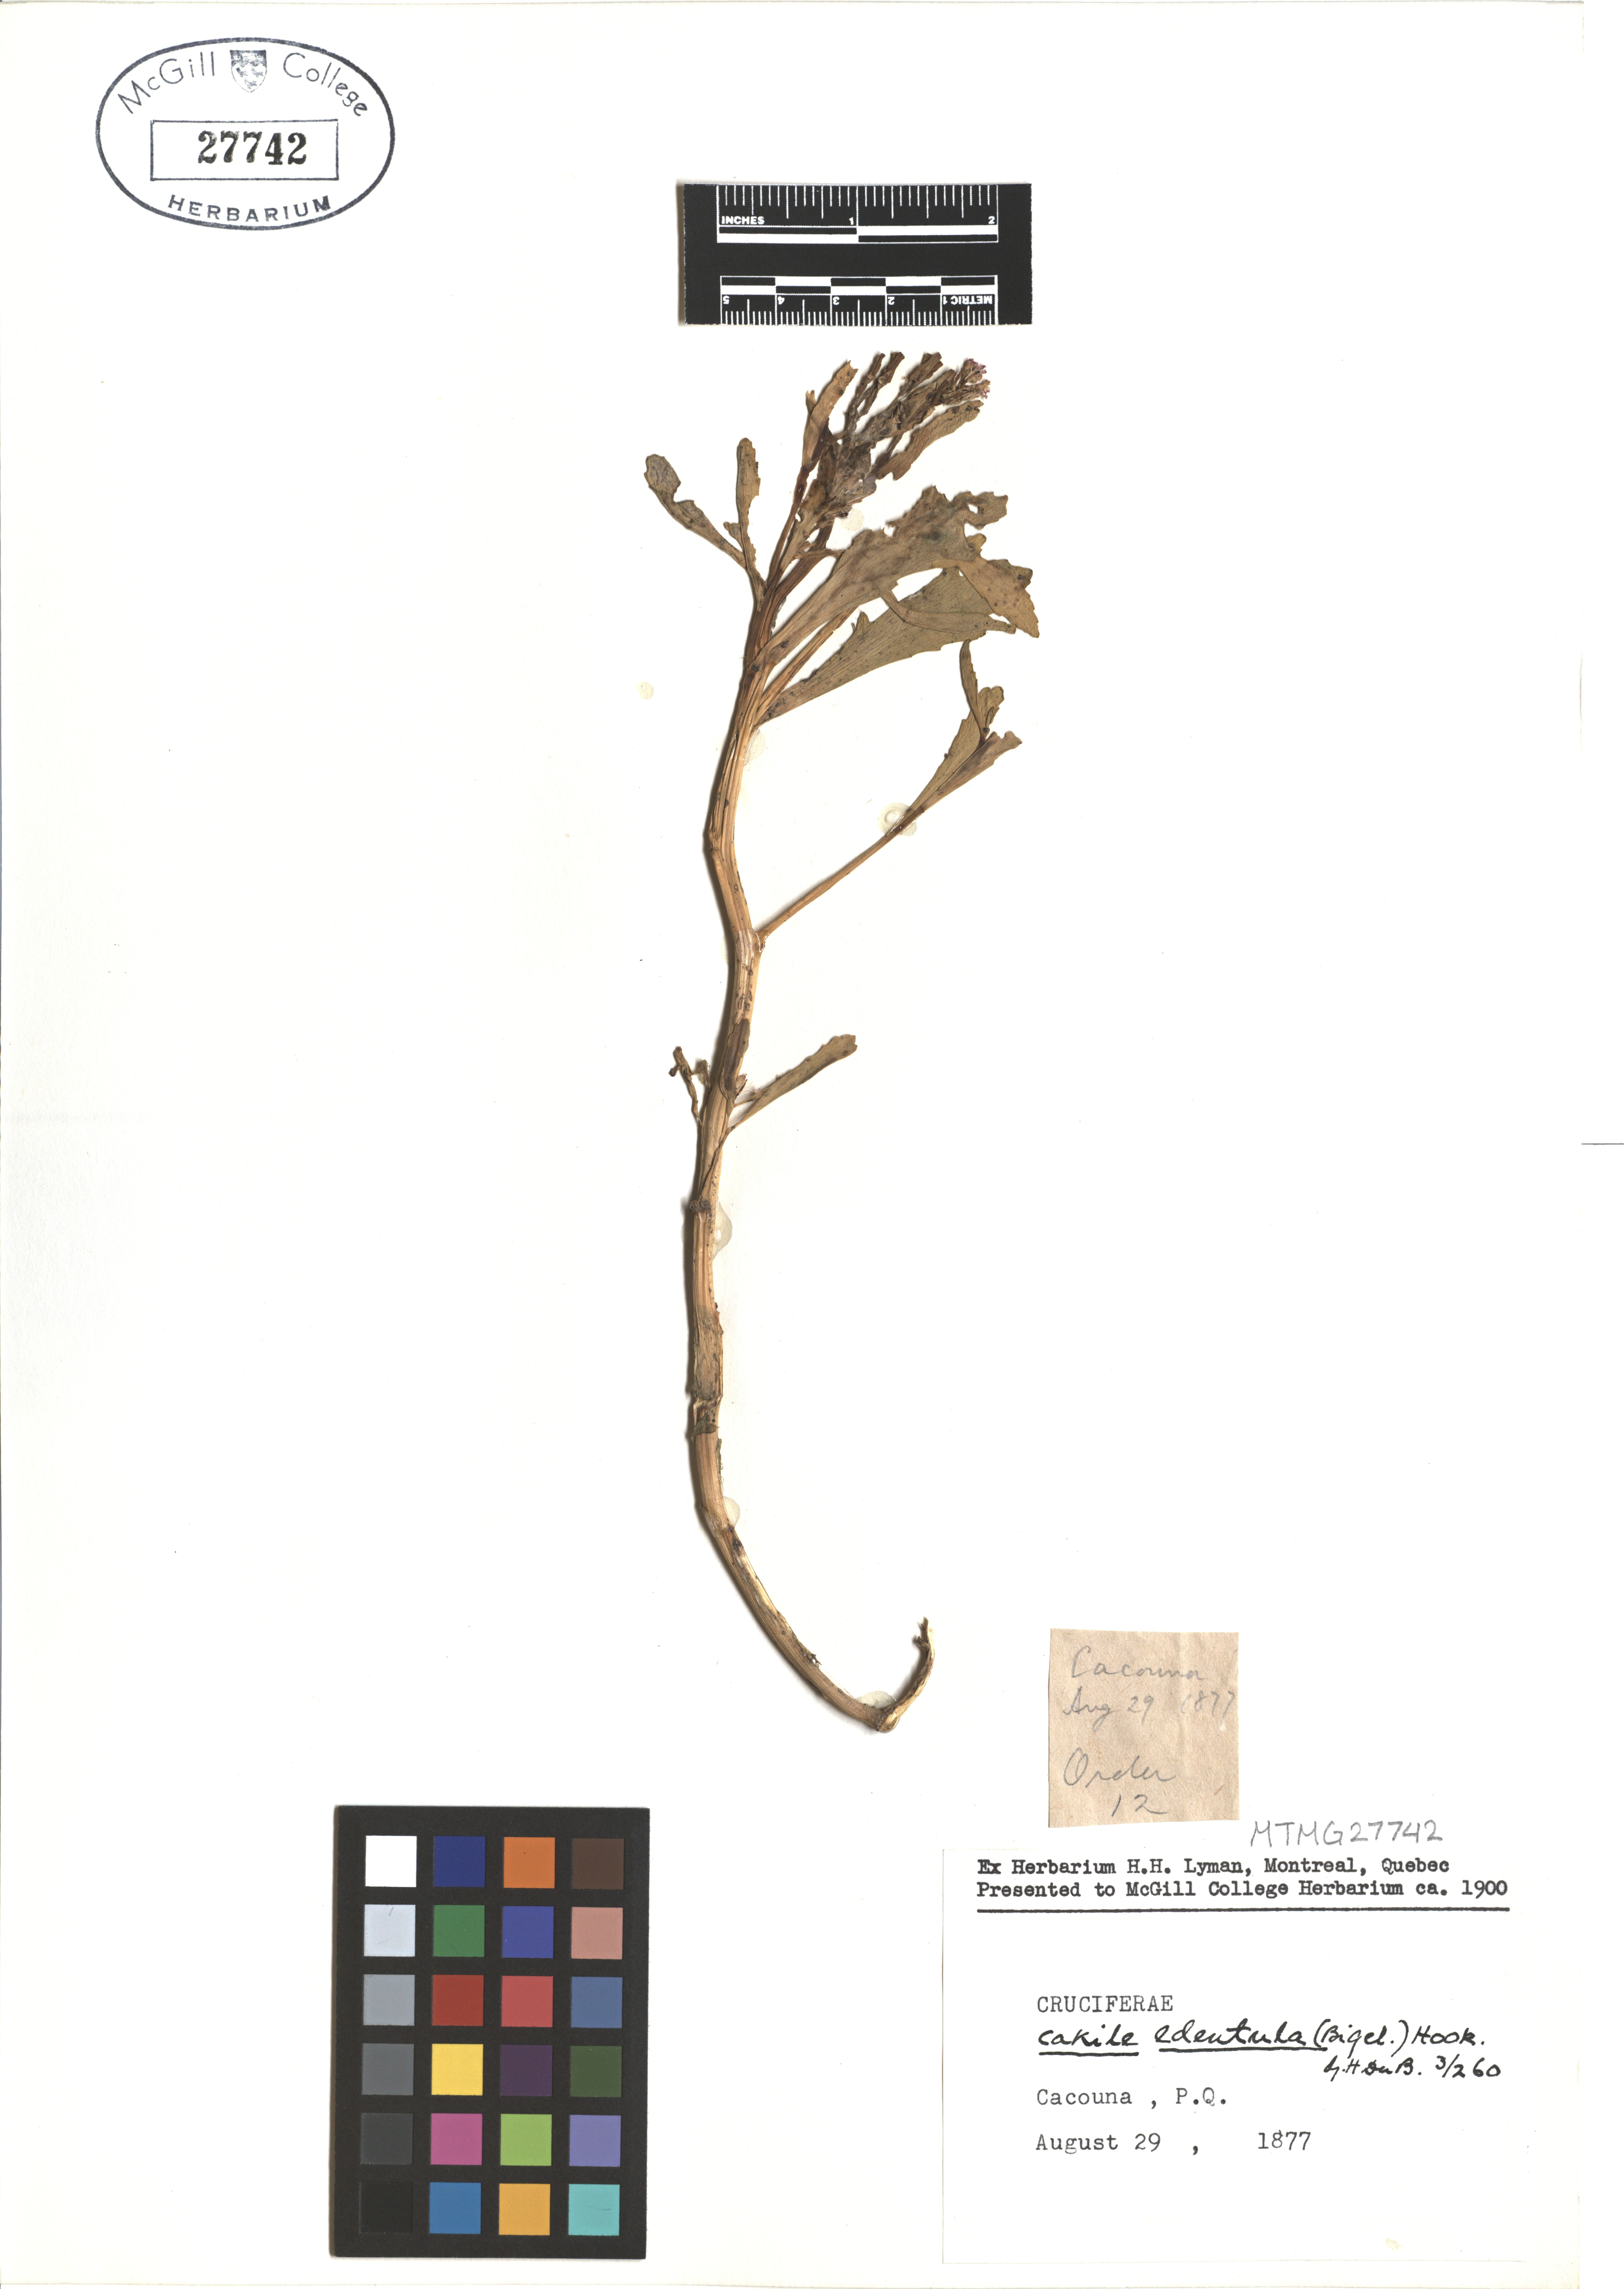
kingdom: Plantae
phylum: Tracheophyta
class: Magnoliopsida
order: Brassicales
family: Brassicaceae
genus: Cakile
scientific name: Cakile edentula
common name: American sea rocket
